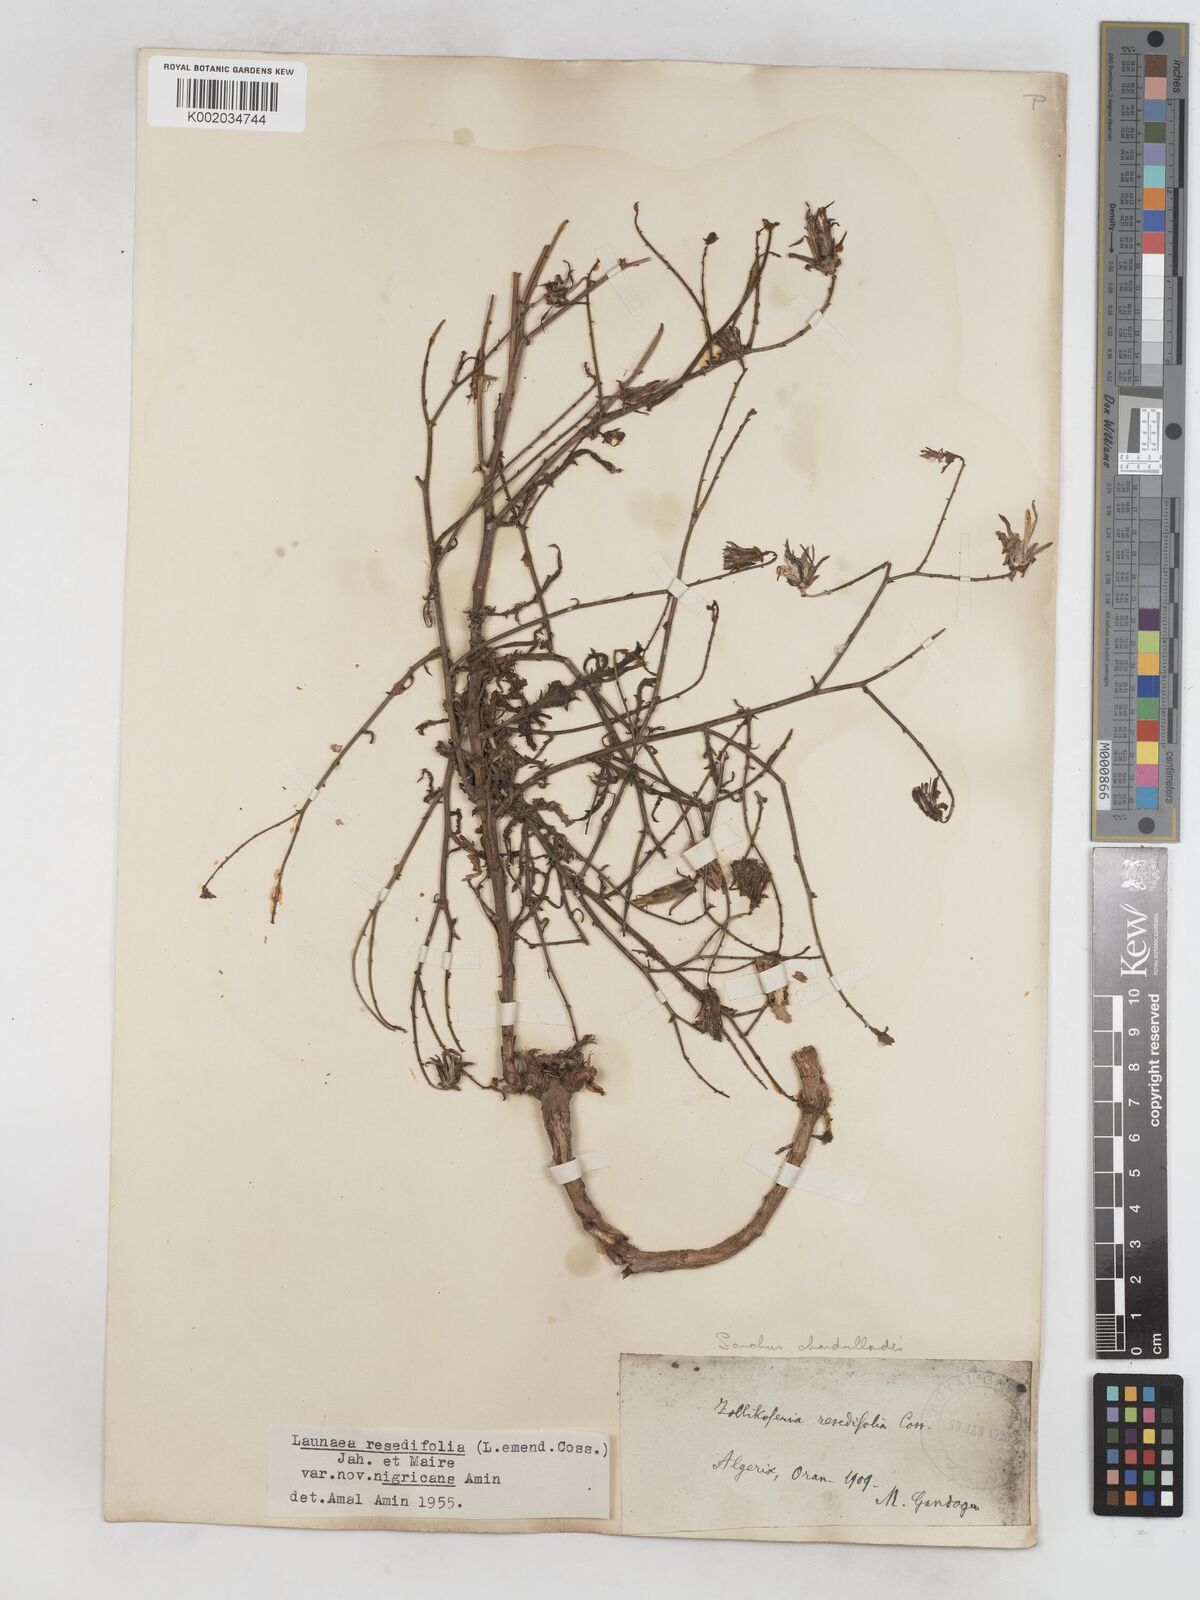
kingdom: Plantae
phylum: Tracheophyta
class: Magnoliopsida
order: Asterales
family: Asteraceae
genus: Launaea
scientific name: Launaea
